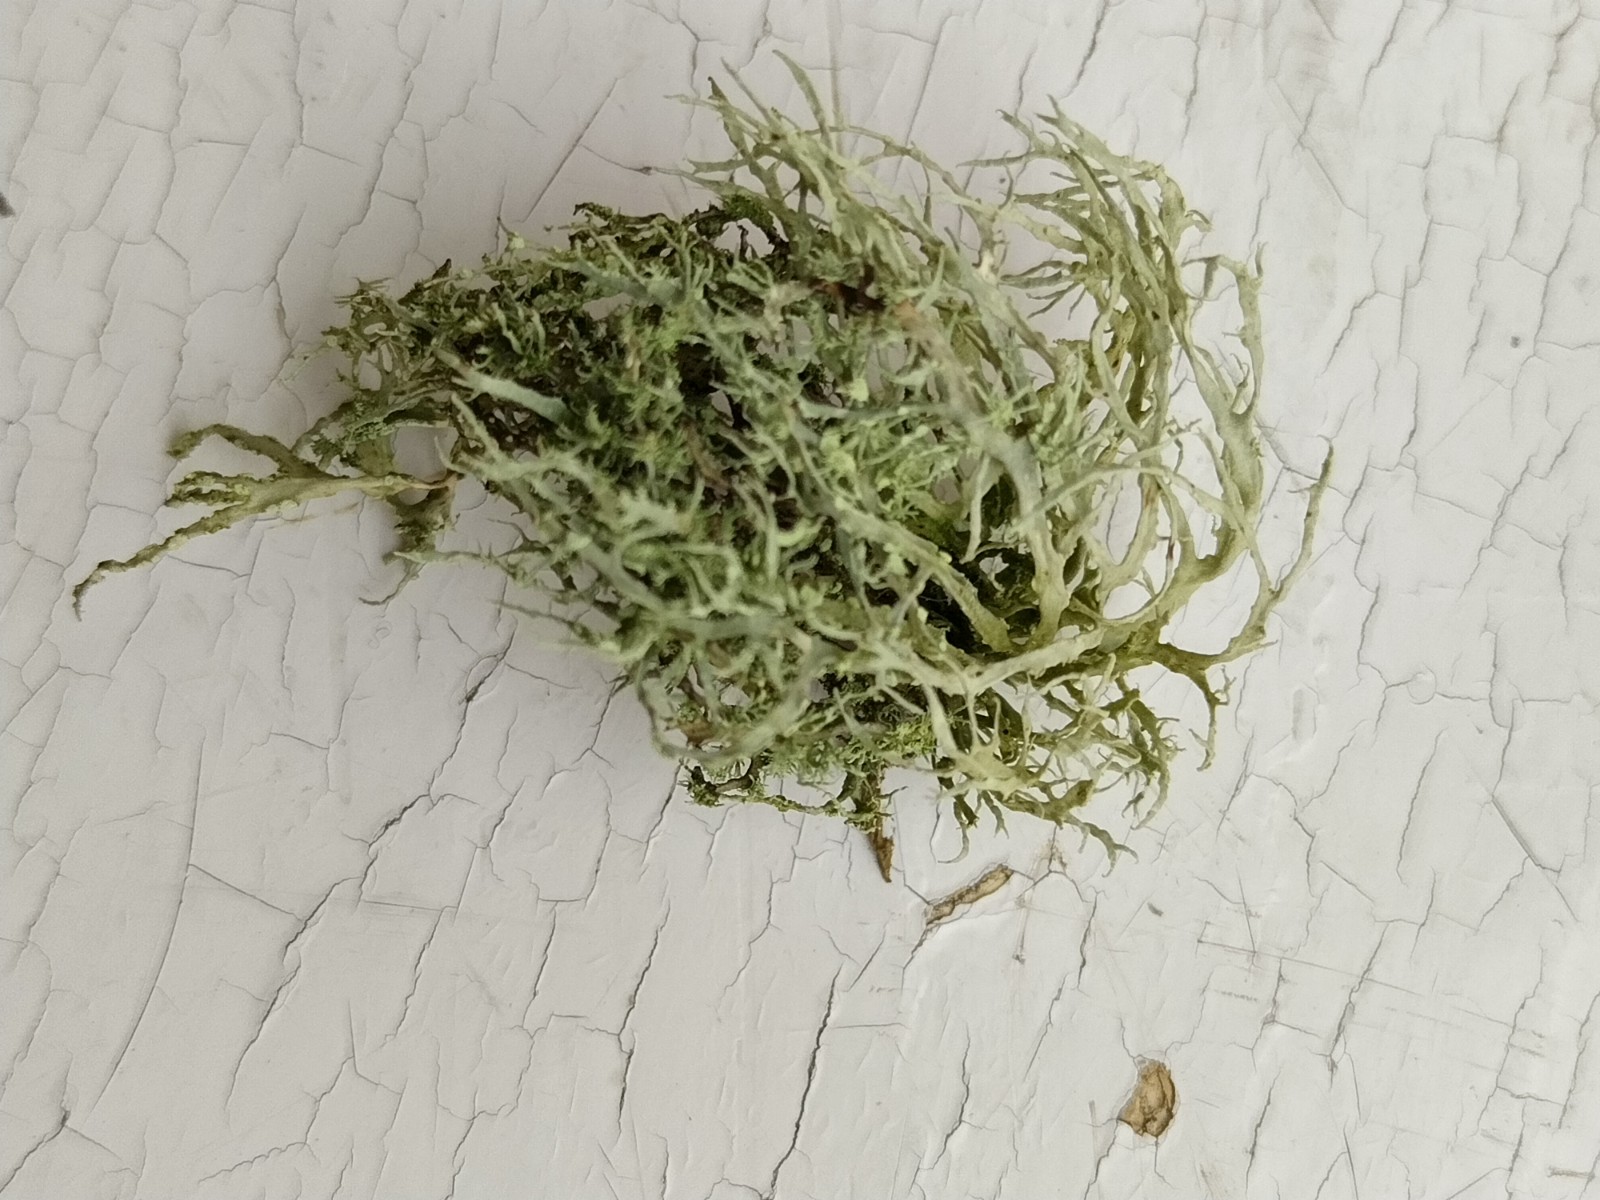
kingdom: Fungi
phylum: Ascomycota
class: Lecanoromycetes
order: Lecanorales
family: Ramalinaceae
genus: Ramalina
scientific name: Ramalina farinacea
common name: melet grenlav
